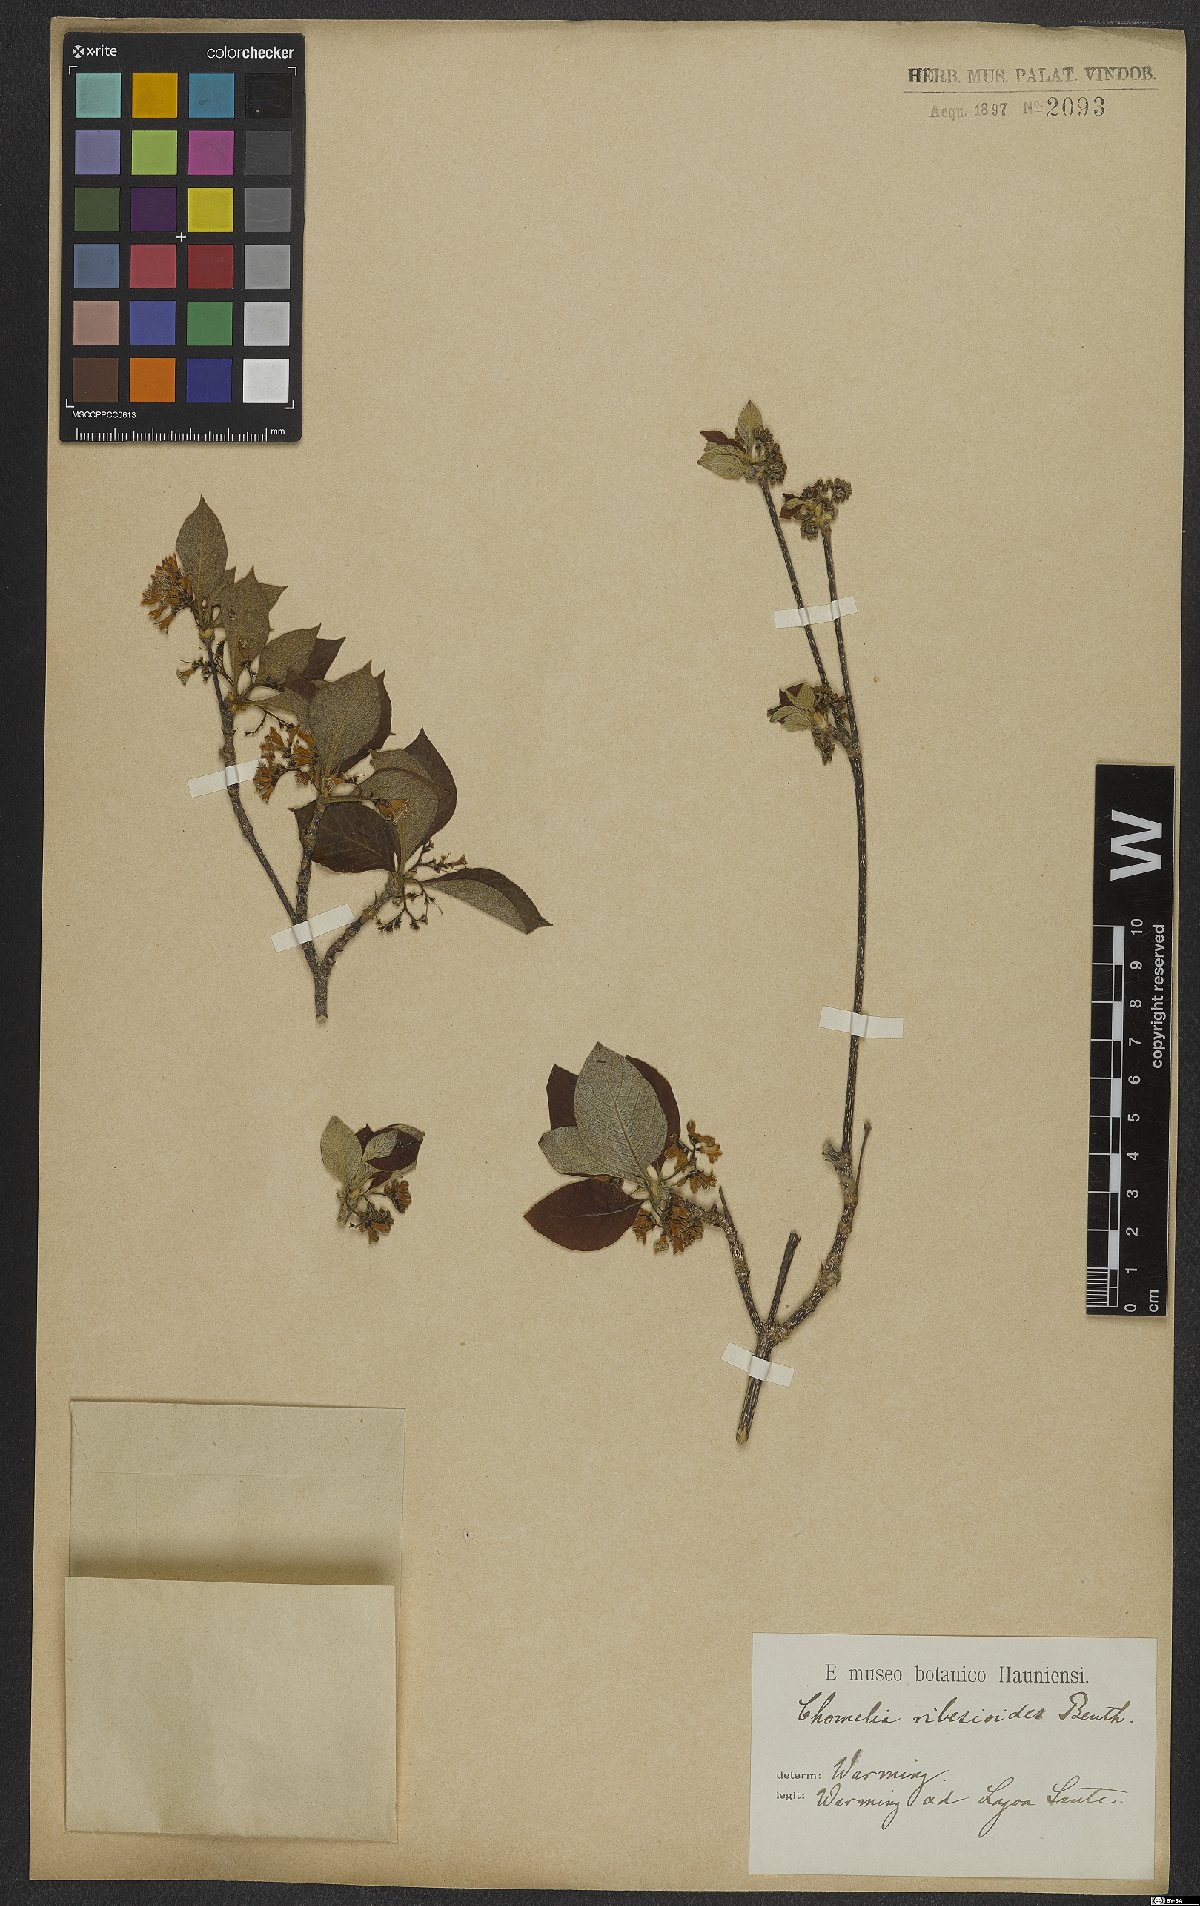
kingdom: Plantae
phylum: Tracheophyta
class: Magnoliopsida
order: Gentianales
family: Rubiaceae
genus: Chomelia
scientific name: Chomelia ribesioides
